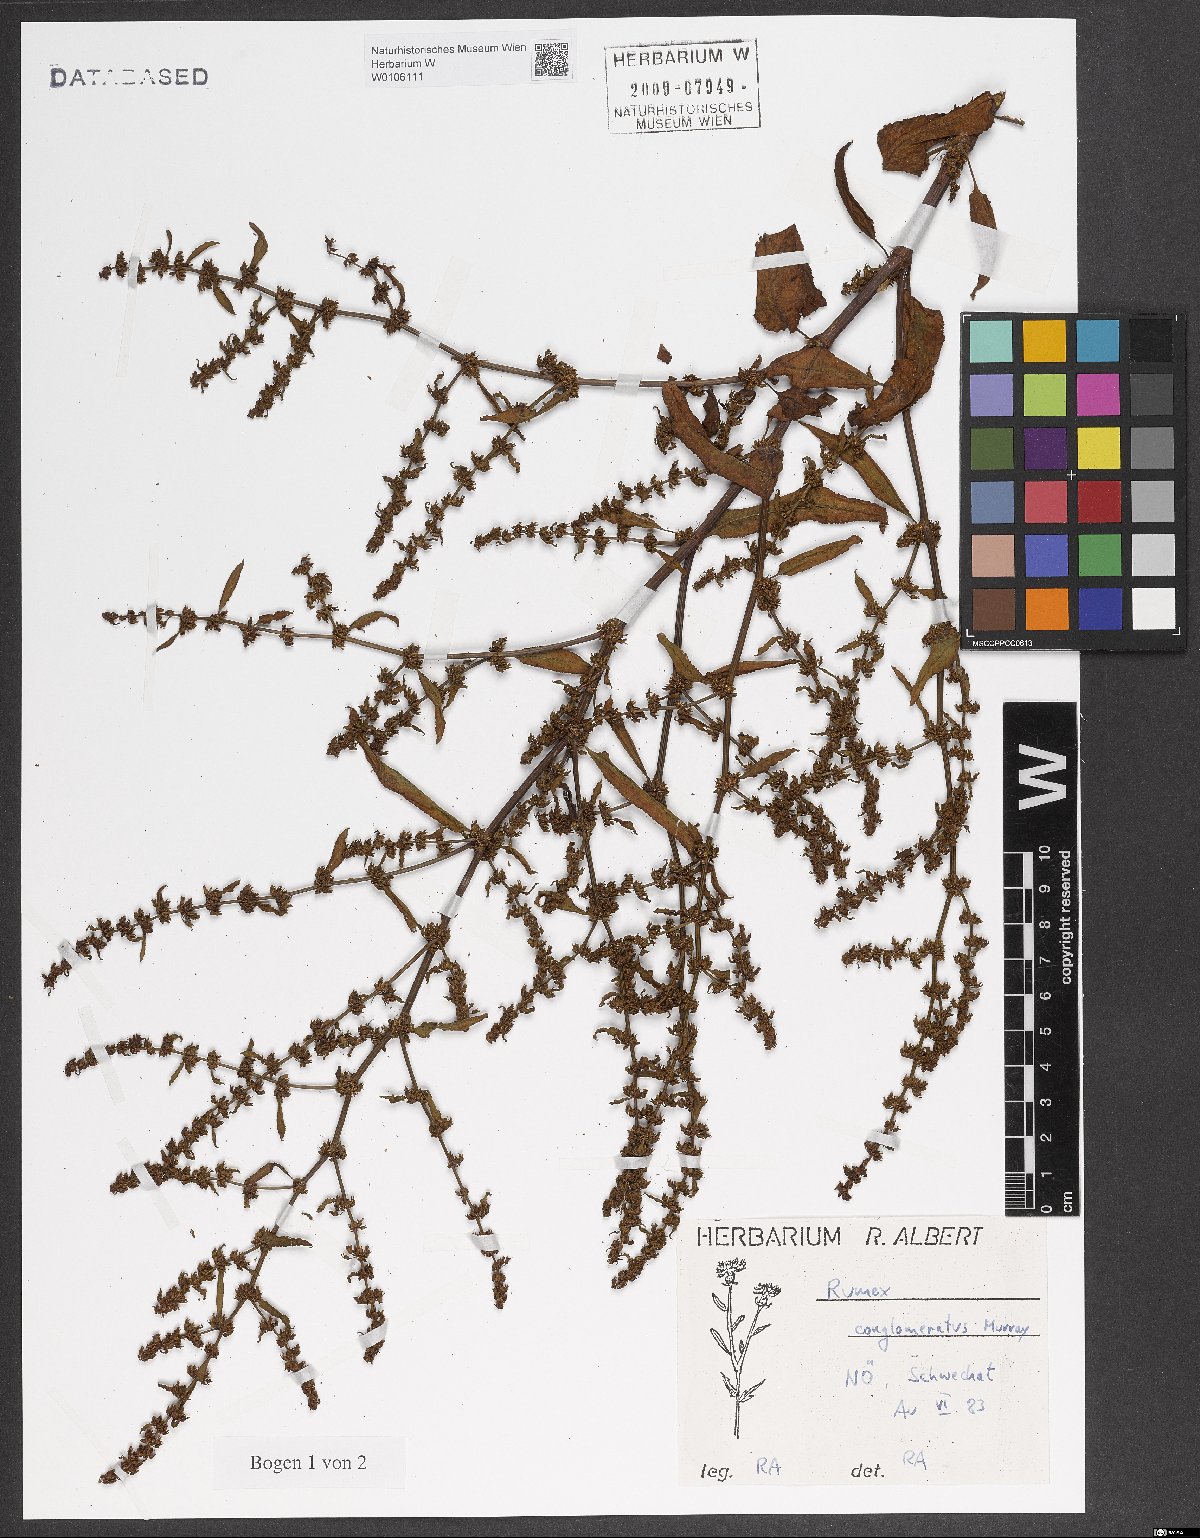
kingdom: Plantae
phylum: Tracheophyta
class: Magnoliopsida
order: Caryophyllales
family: Polygonaceae
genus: Rumex
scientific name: Rumex conglomeratus
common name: Clustered dock
